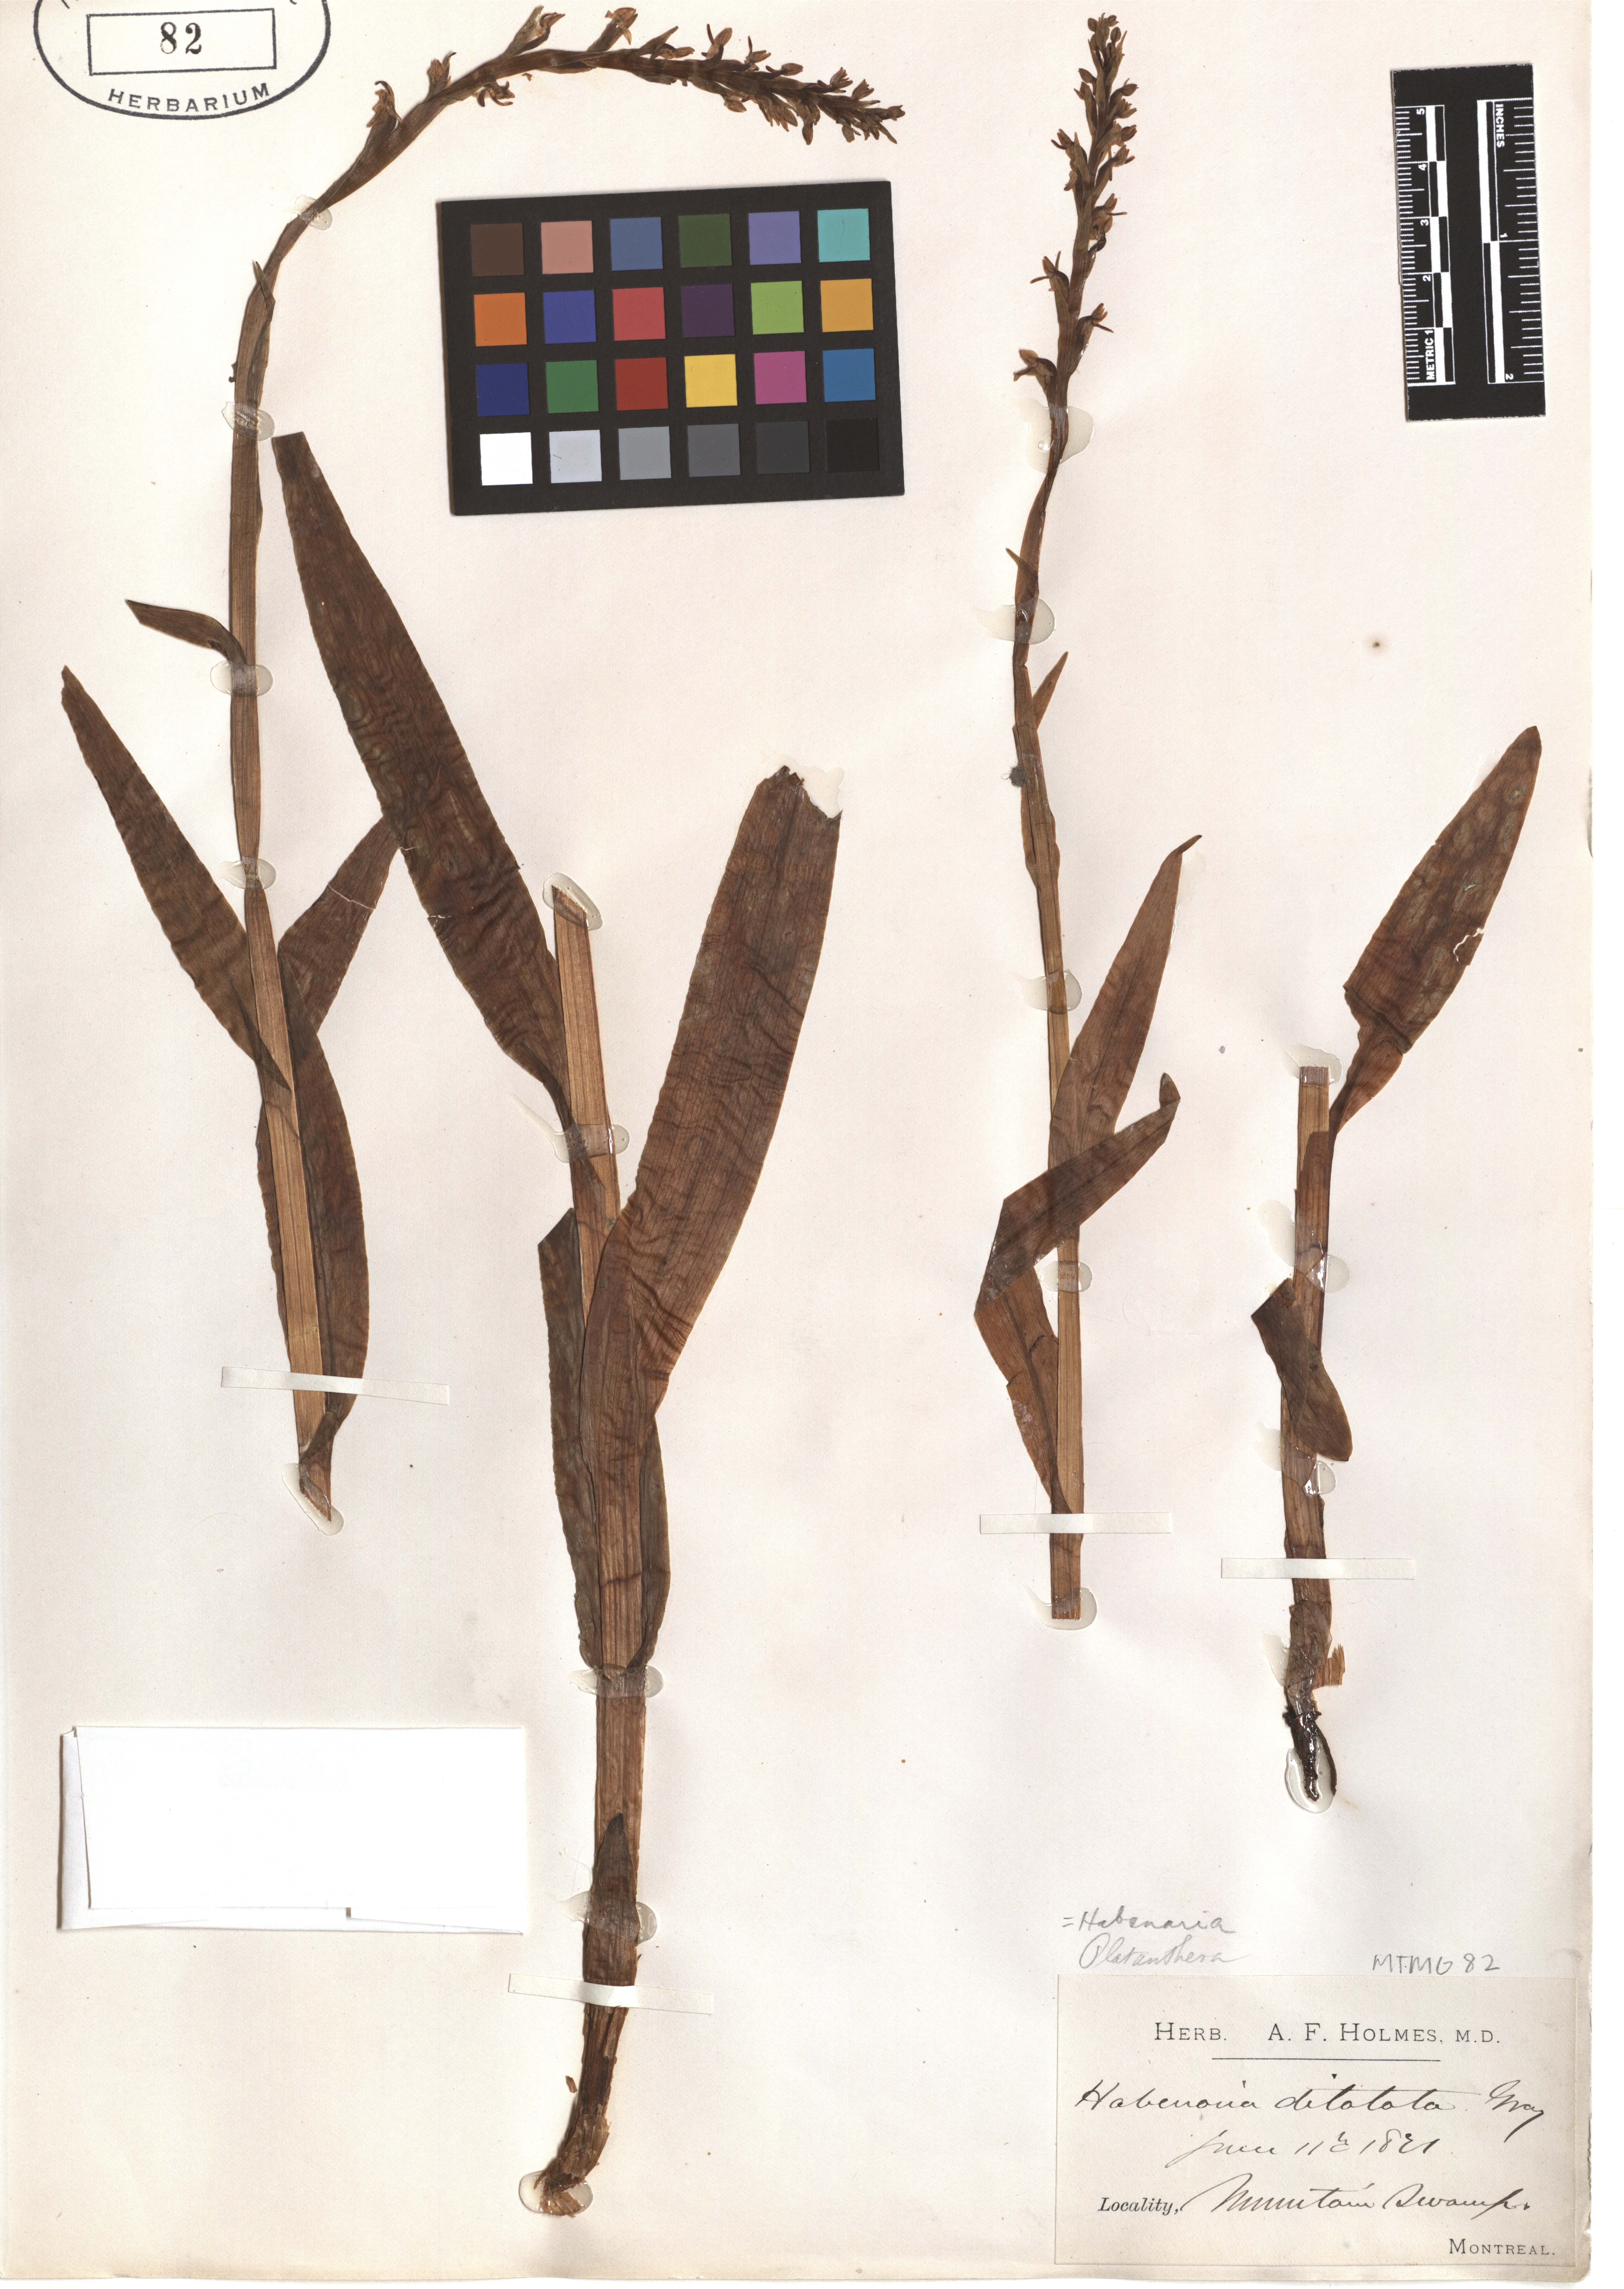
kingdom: Plantae
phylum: Tracheophyta
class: Liliopsida
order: Asparagales
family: Orchidaceae
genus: Platanthera
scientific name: Platanthera dilatata
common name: Bog candles
